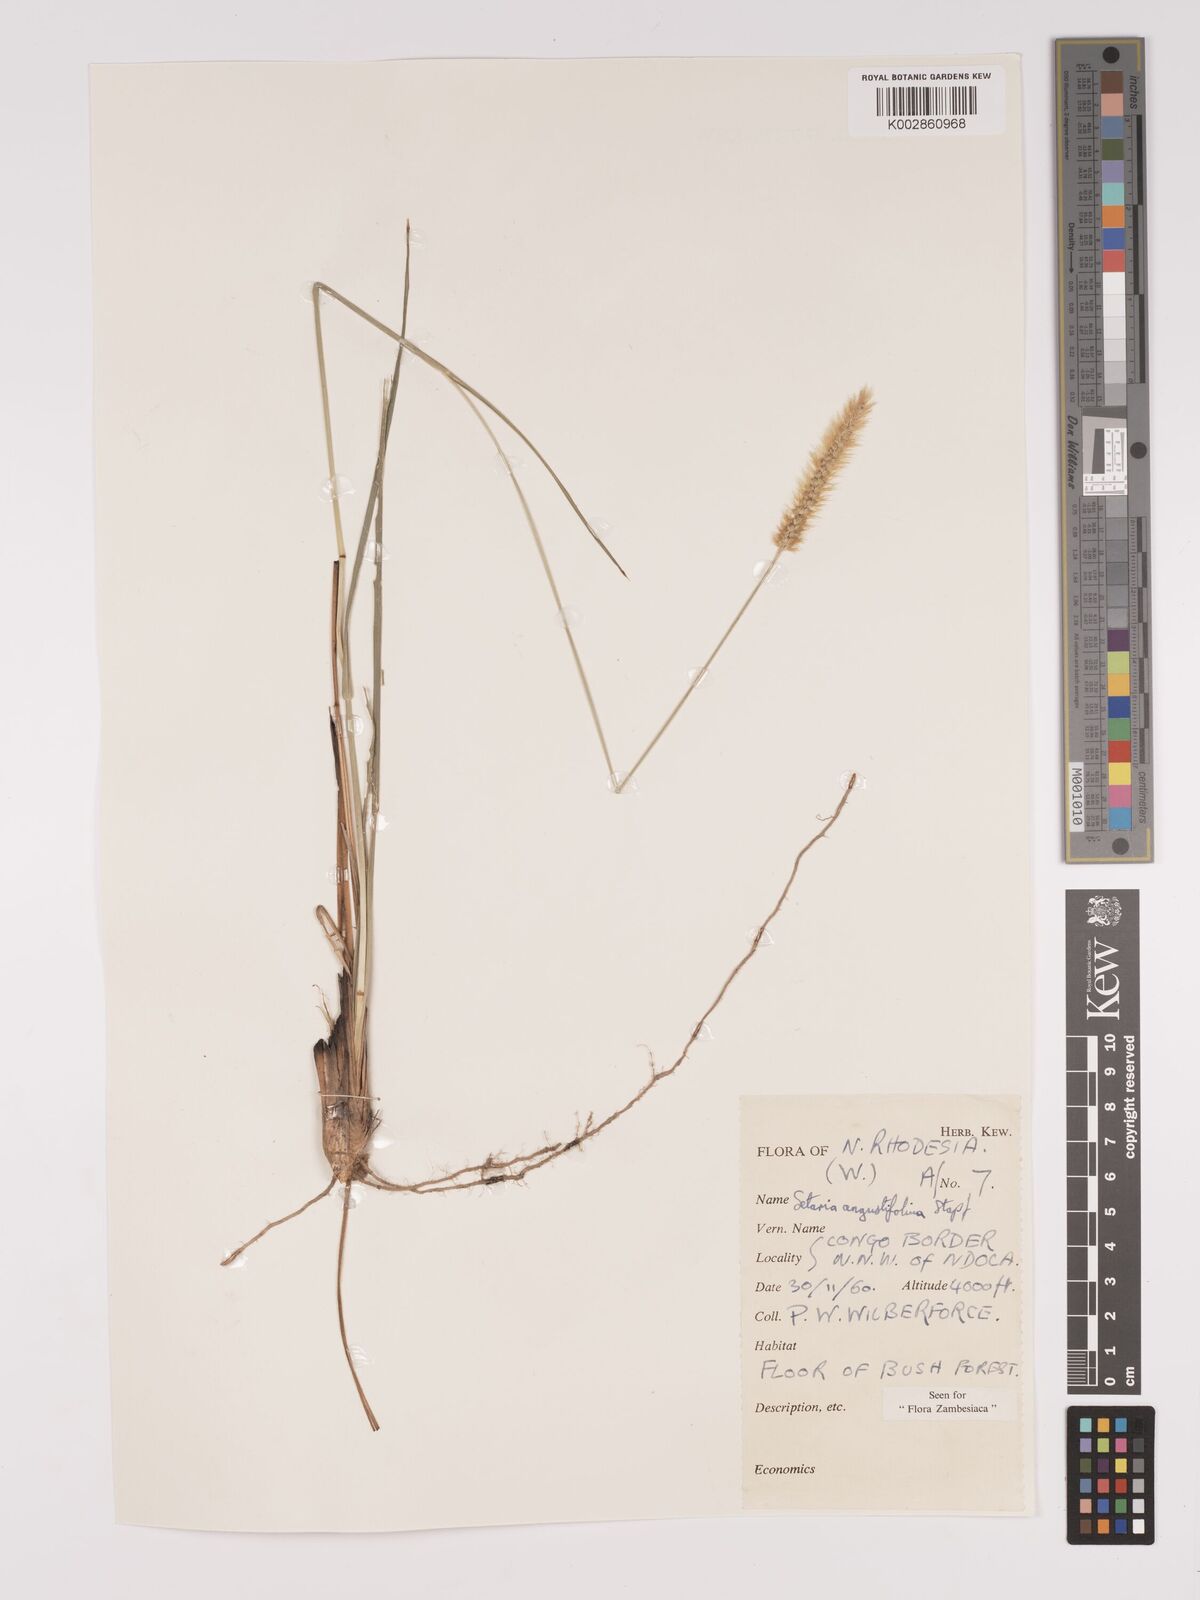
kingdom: Plantae
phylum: Tracheophyta
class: Liliopsida
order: Poales
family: Poaceae
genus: Setaria
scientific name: Setaria
